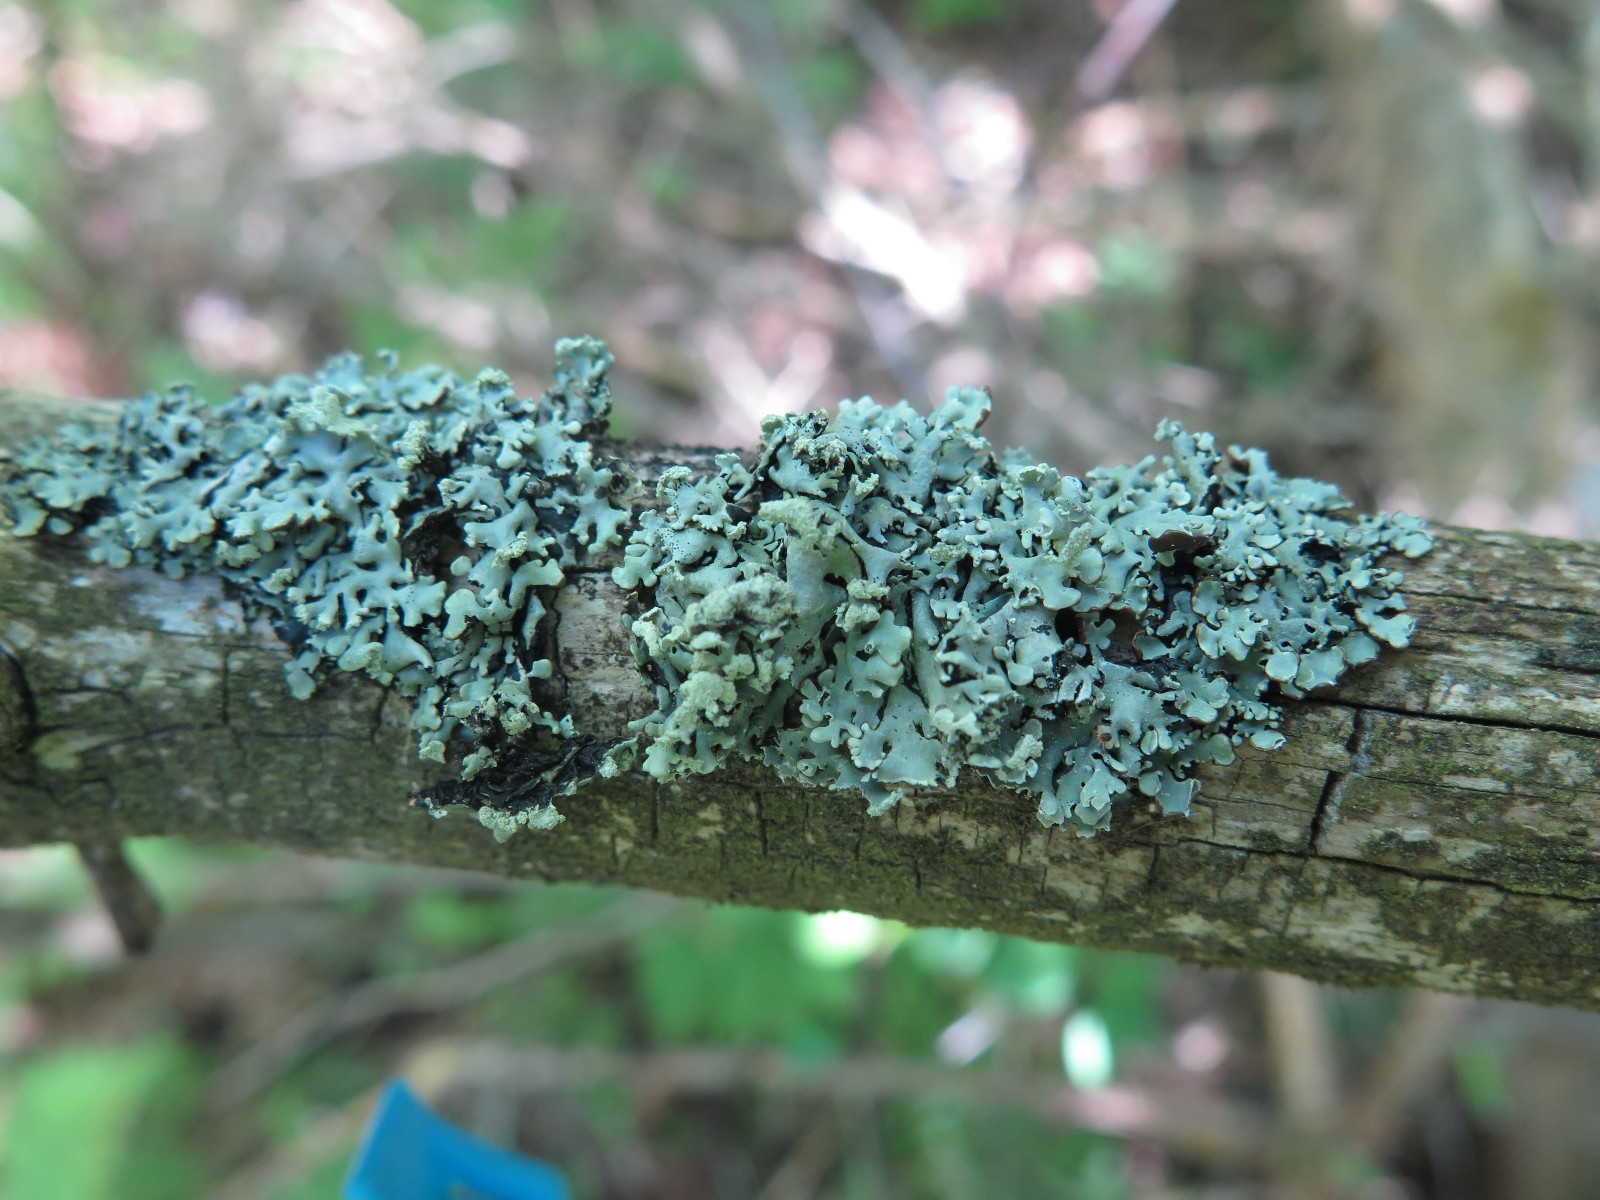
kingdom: Fungi
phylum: Ascomycota
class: Lecanoromycetes
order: Lecanorales
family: Parmeliaceae
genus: Hypogymnia
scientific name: Hypogymnia physodes
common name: almindelig kvistlav
